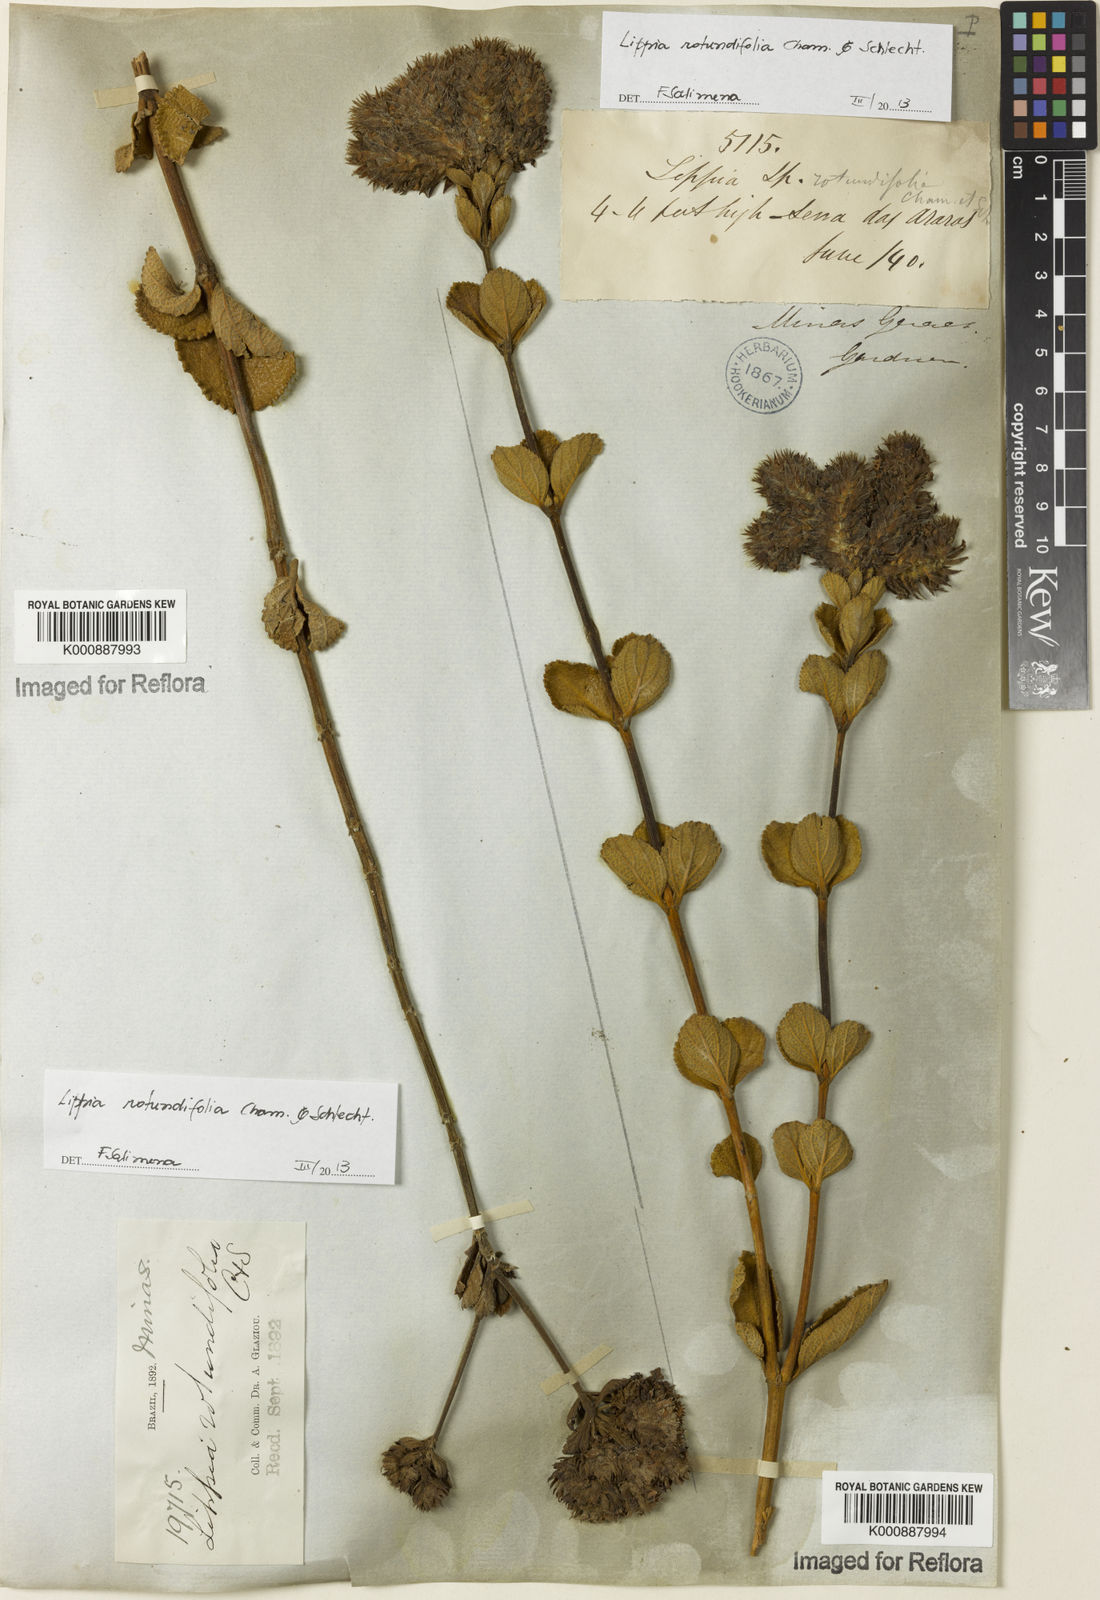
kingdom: Plantae
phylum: Tracheophyta
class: Magnoliopsida
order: Lamiales
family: Verbenaceae
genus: Lippia
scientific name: Lippia rotundifolia
